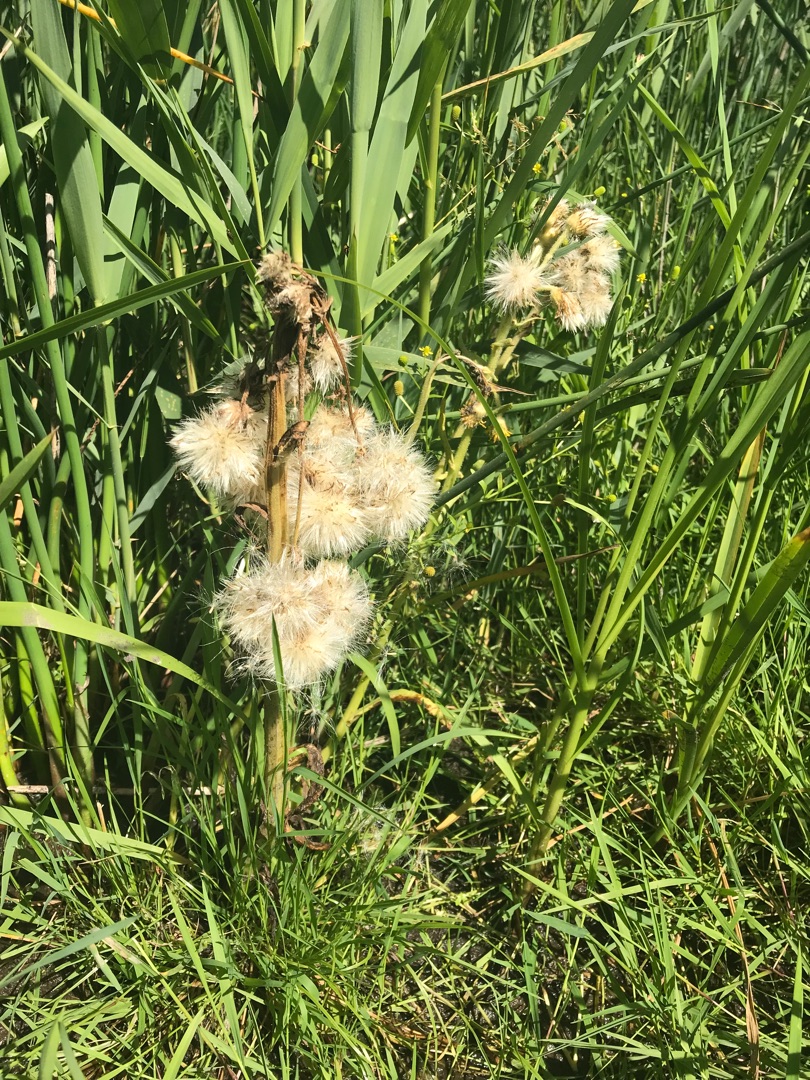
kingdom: Plantae
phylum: Tracheophyta
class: Magnoliopsida
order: Asterales
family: Asteraceae
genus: Tephroseris
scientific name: Tephroseris palustris
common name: Kær-fnokurt
